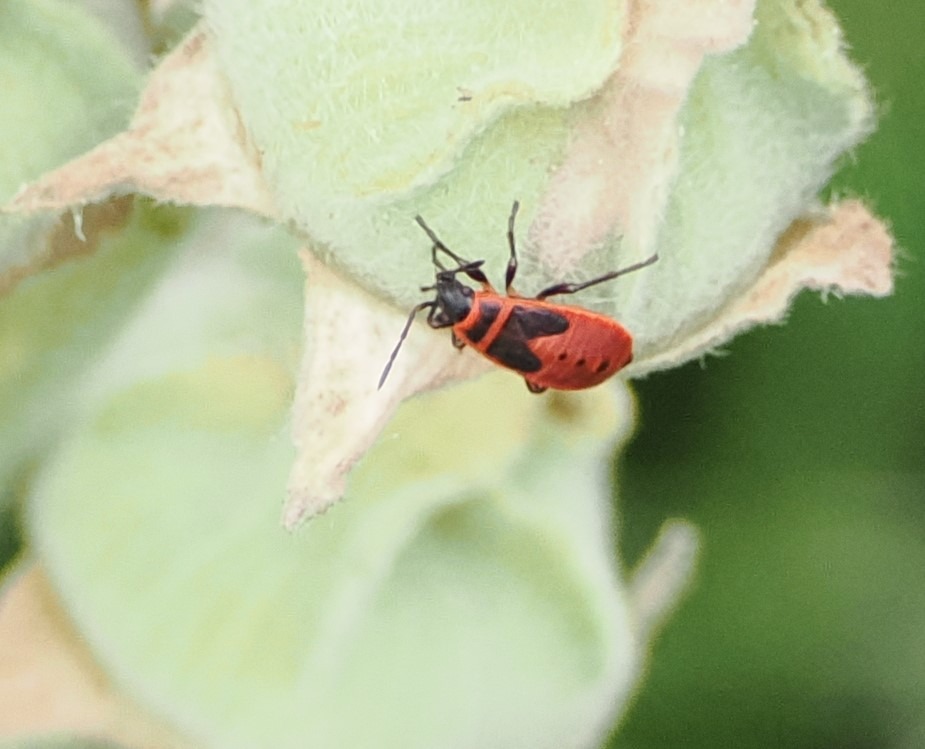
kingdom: Animalia
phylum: Arthropoda
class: Insecta
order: Hemiptera
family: Pyrrhocoridae
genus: Pyrrhocoris
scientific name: Pyrrhocoris apterus
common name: Ildtæge
